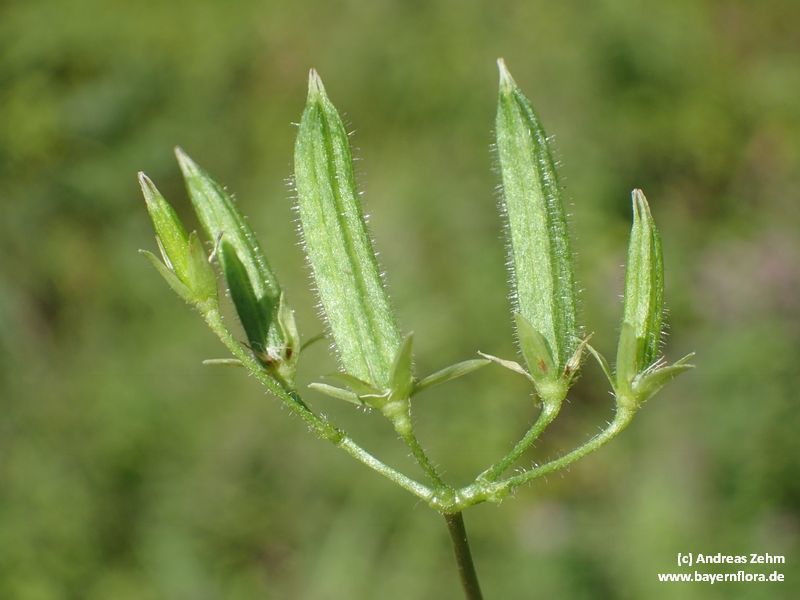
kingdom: Plantae
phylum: Tracheophyta
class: Magnoliopsida
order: Oxalidales
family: Oxalidaceae
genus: Oxalis
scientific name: Oxalis stricta
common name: Upright yellow-sorrel
